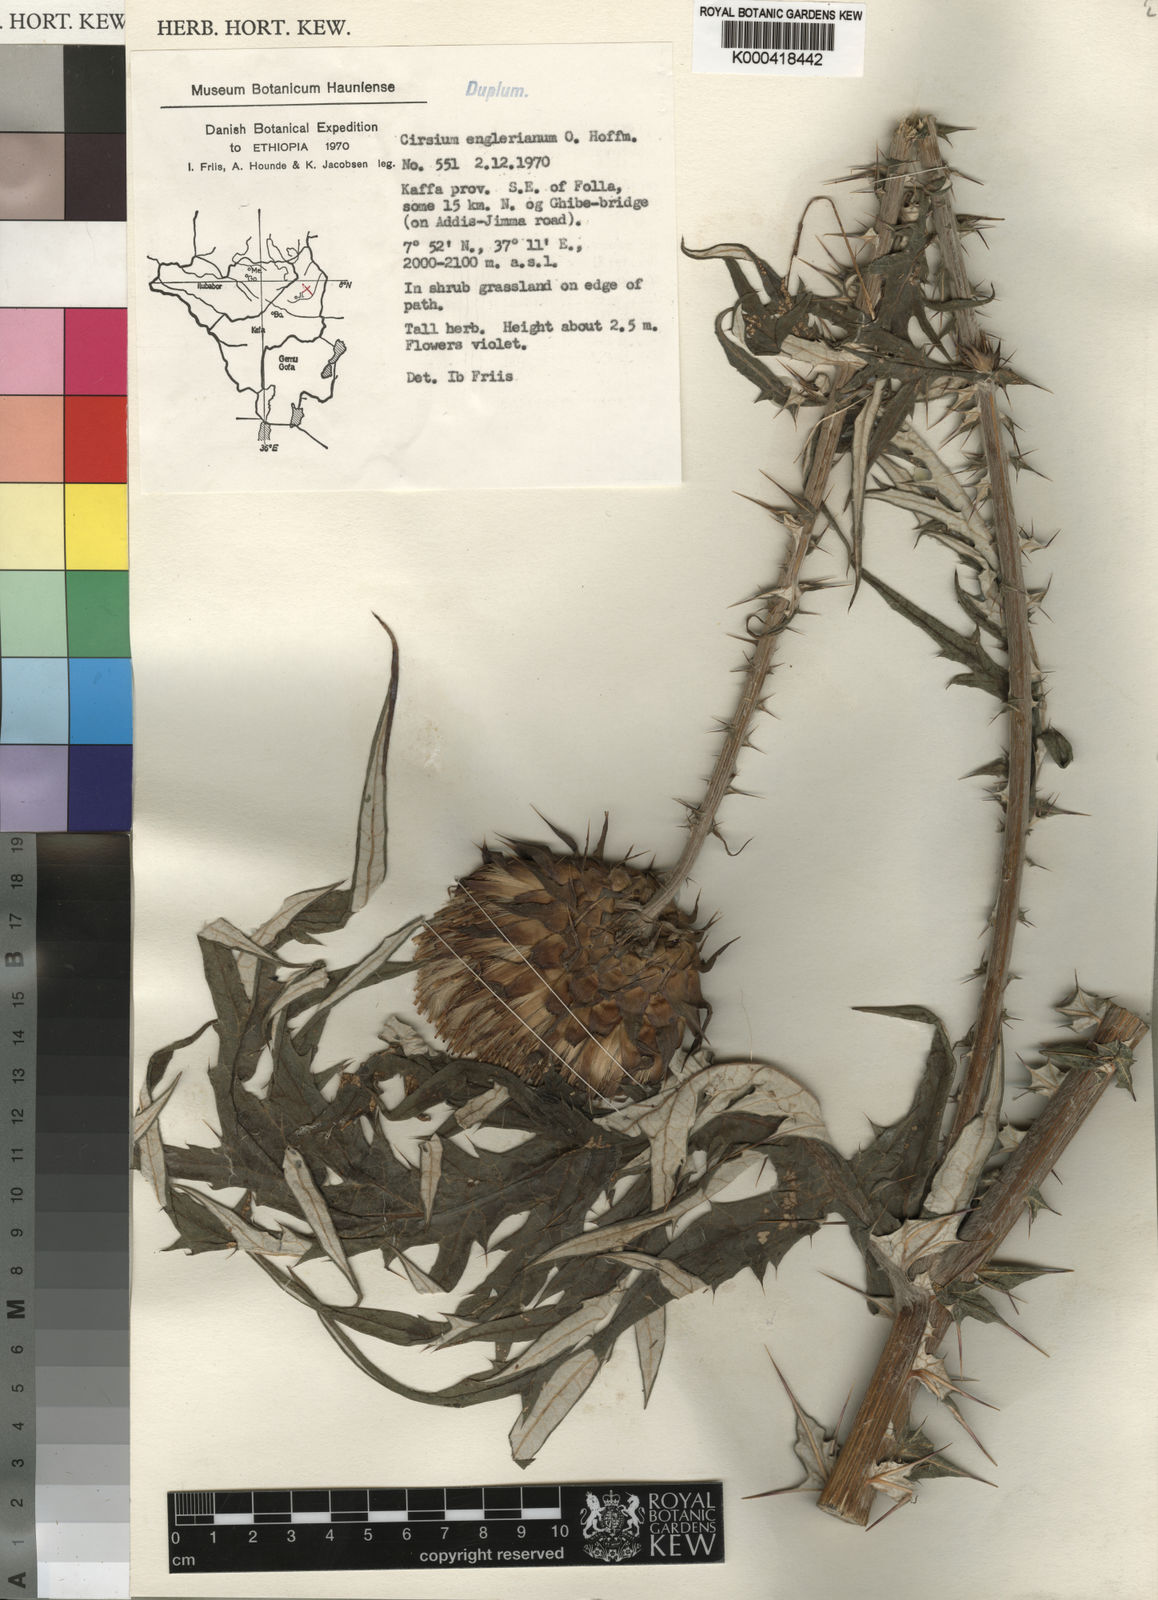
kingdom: Plantae
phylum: Tracheophyta
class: Magnoliopsida
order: Asterales
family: Asteraceae
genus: Cirsium
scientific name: Cirsium englerianum
